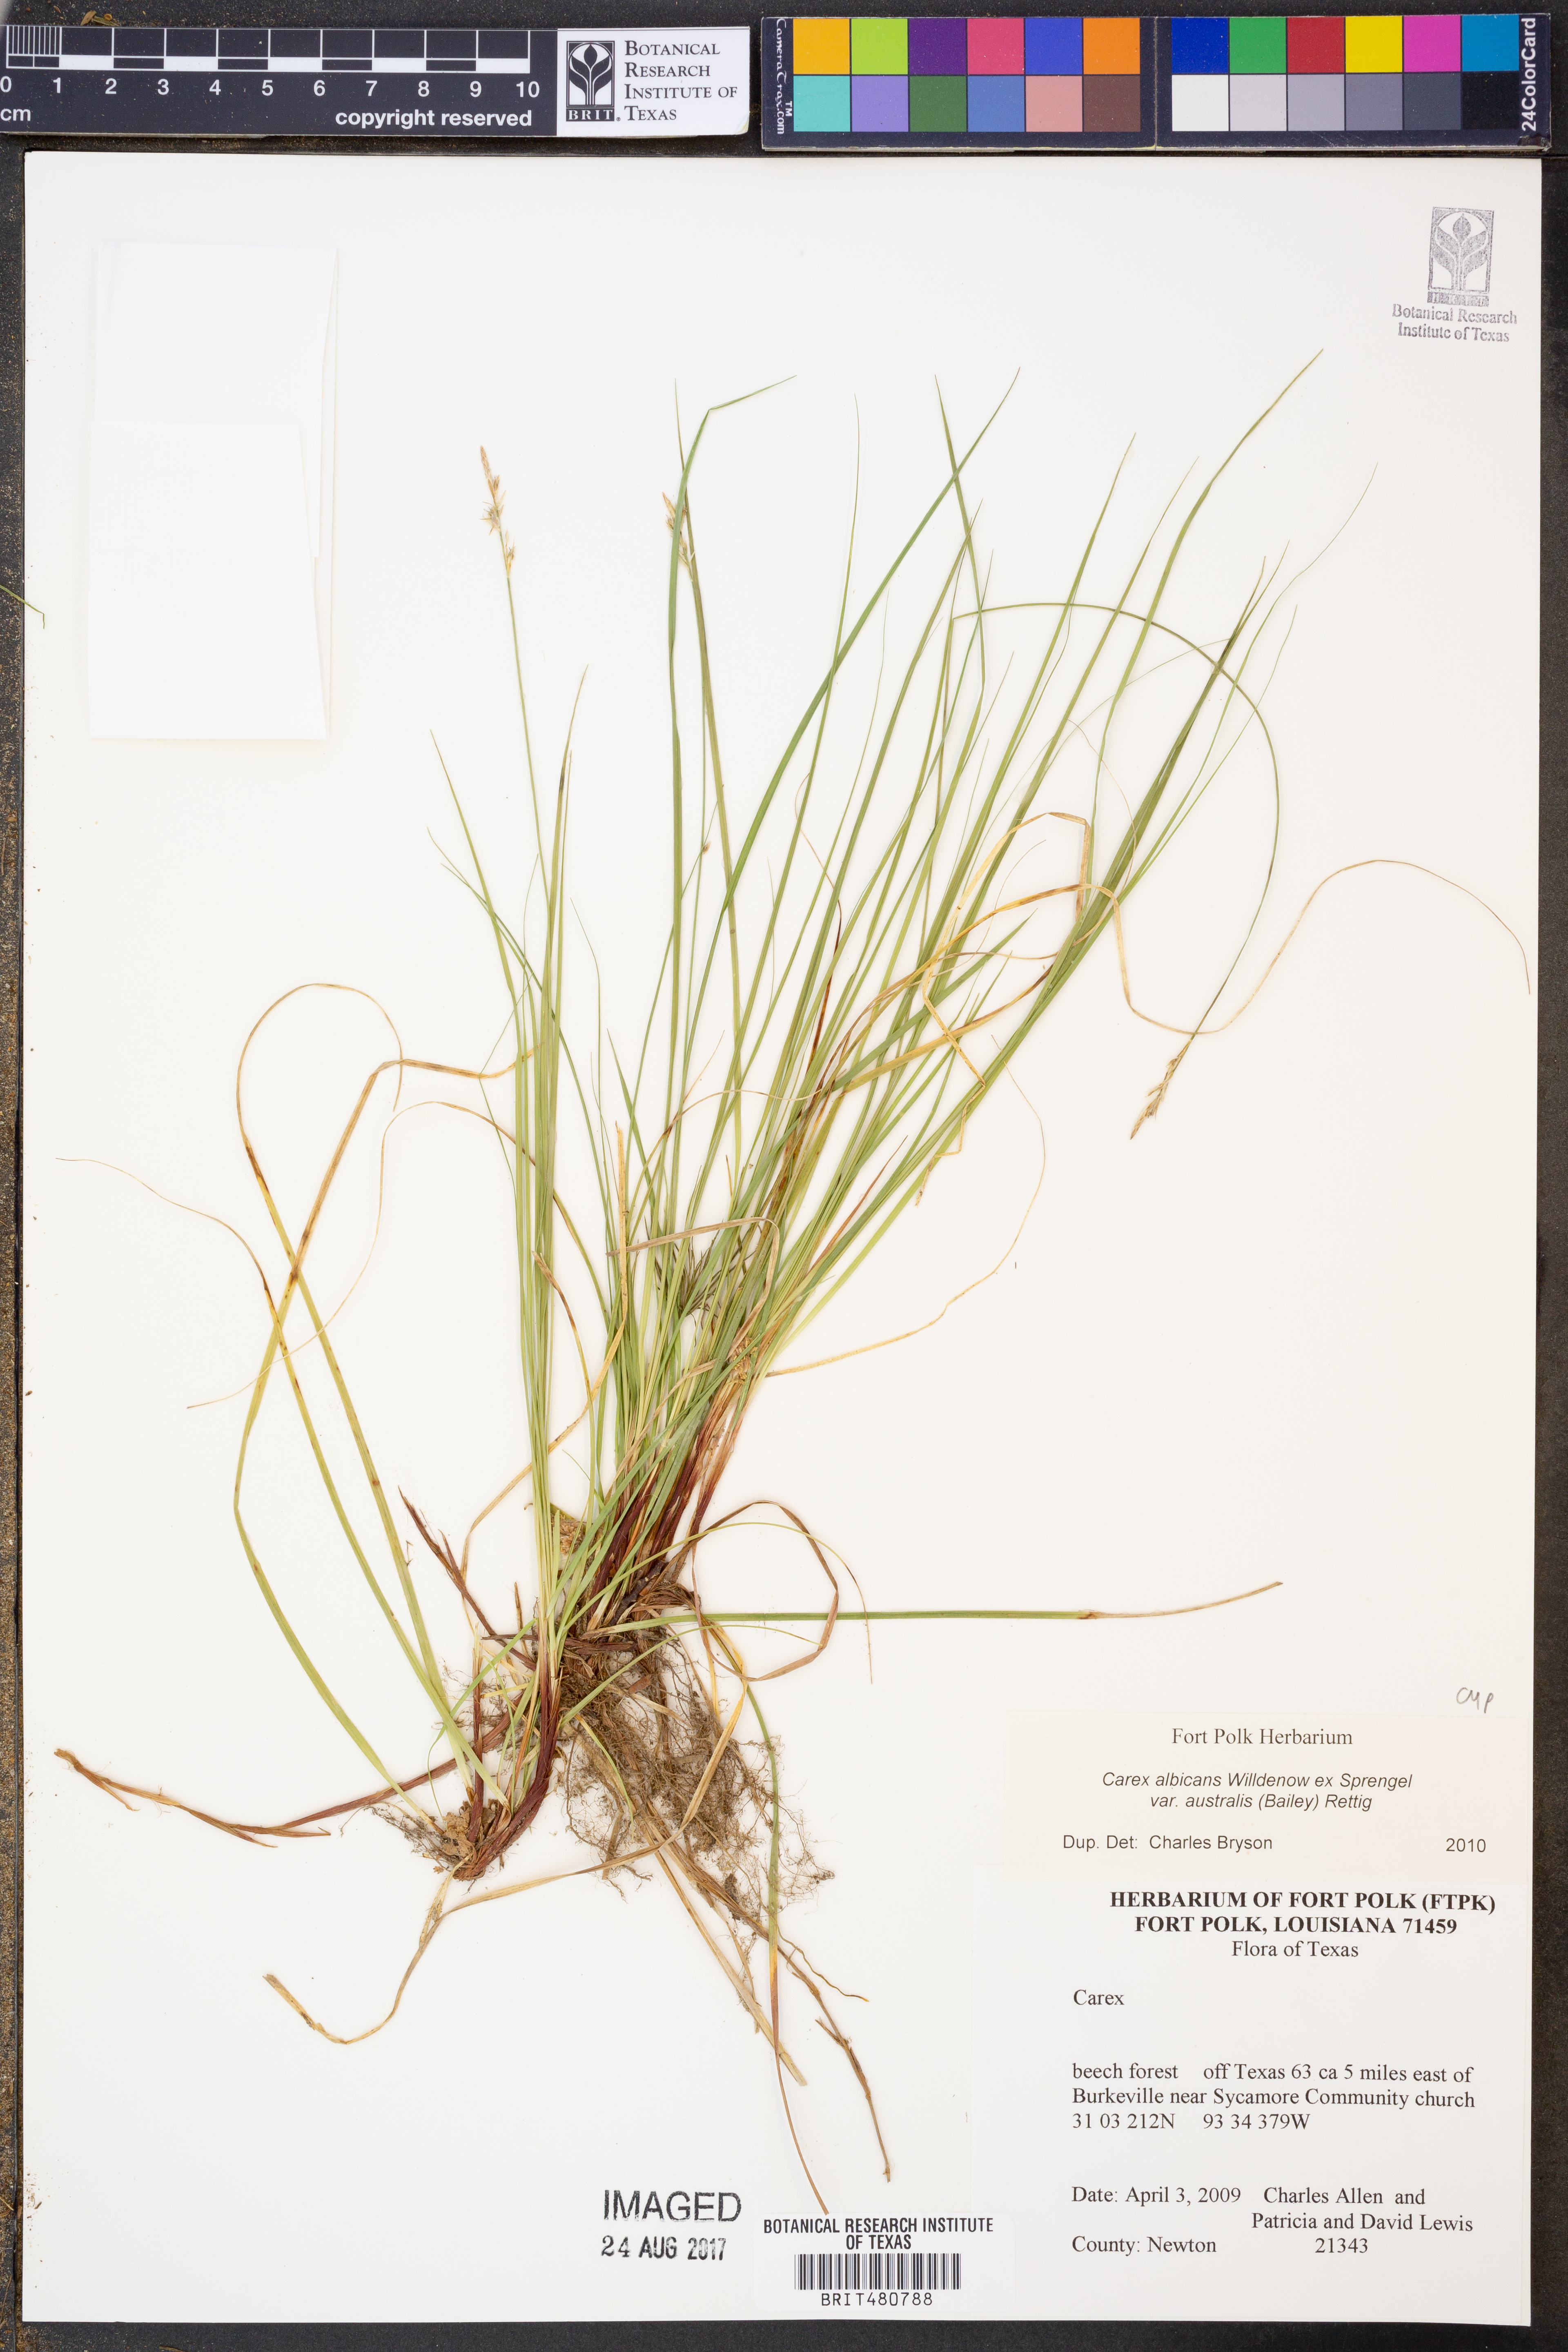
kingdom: Plantae
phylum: Tracheophyta
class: Liliopsida
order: Poales
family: Cyperaceae
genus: Carex
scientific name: Carex albicans
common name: Bellow-beaked sedge
